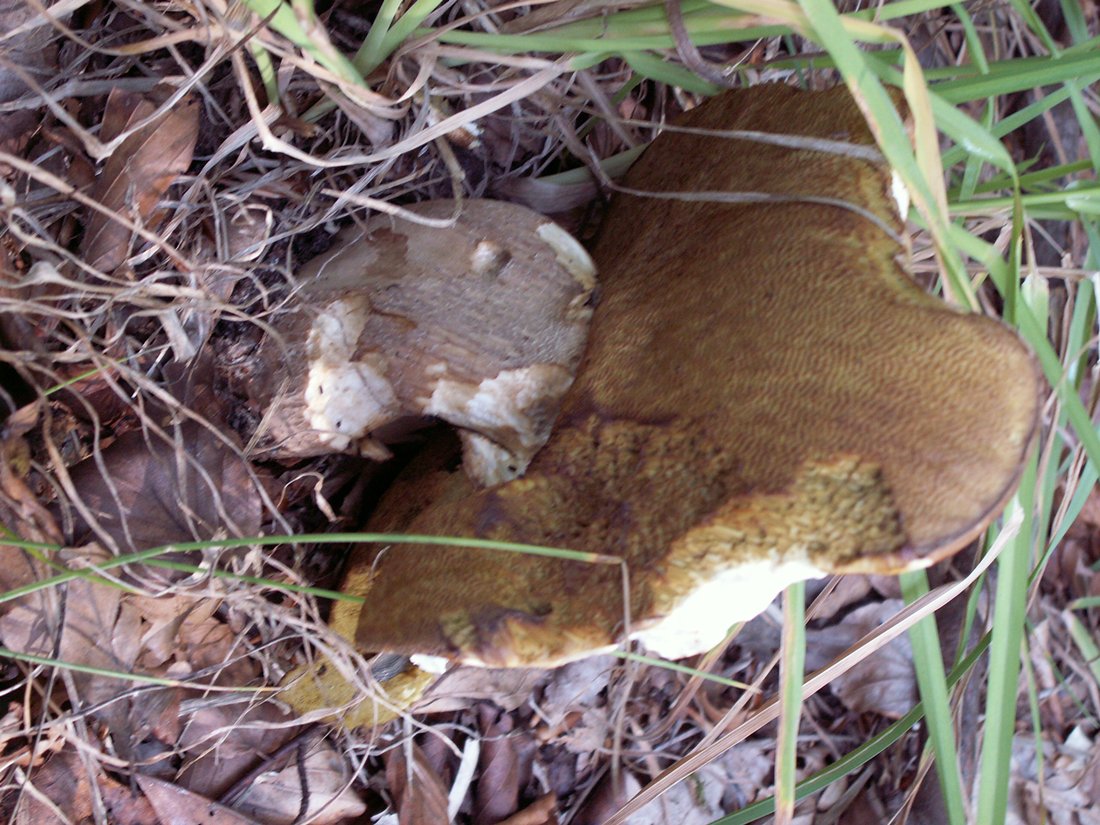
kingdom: Fungi
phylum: Basidiomycota
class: Agaricomycetes
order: Boletales
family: Boletaceae
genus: Boletus
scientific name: Boletus edulis
